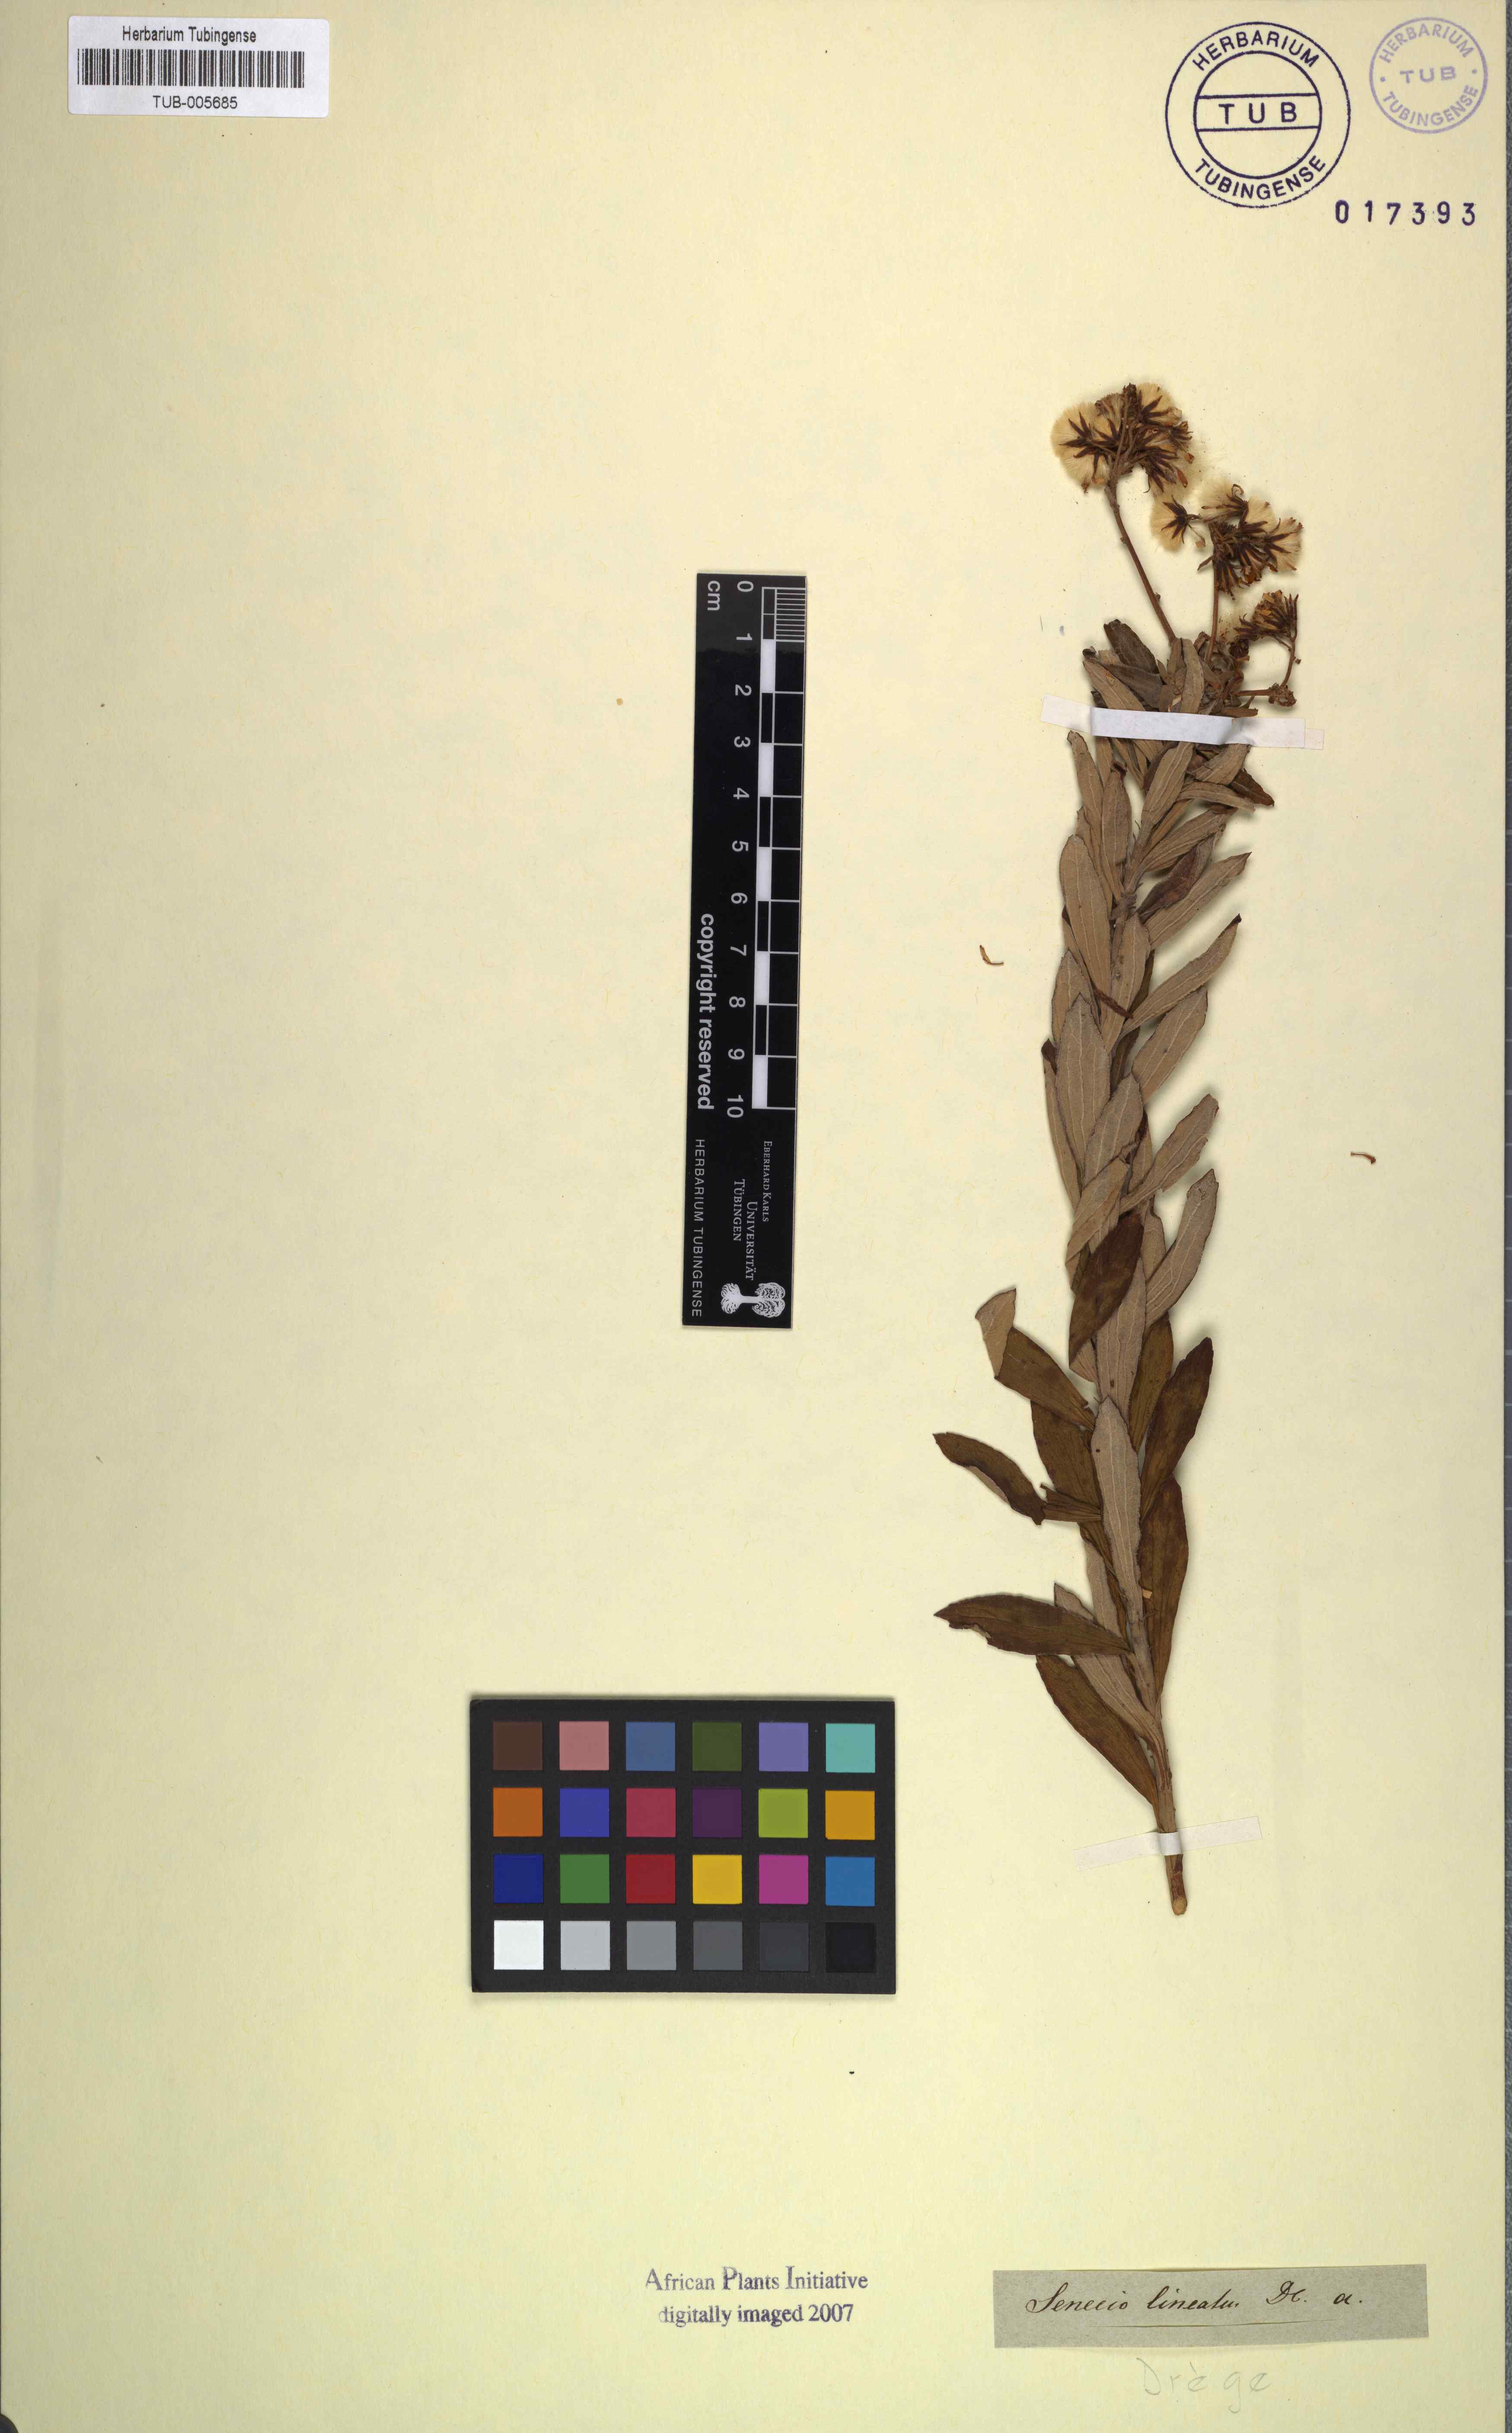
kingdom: Plantae
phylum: Tracheophyta
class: Magnoliopsida
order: Asterales
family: Asteraceae
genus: Senecio
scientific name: Senecio lineatus
